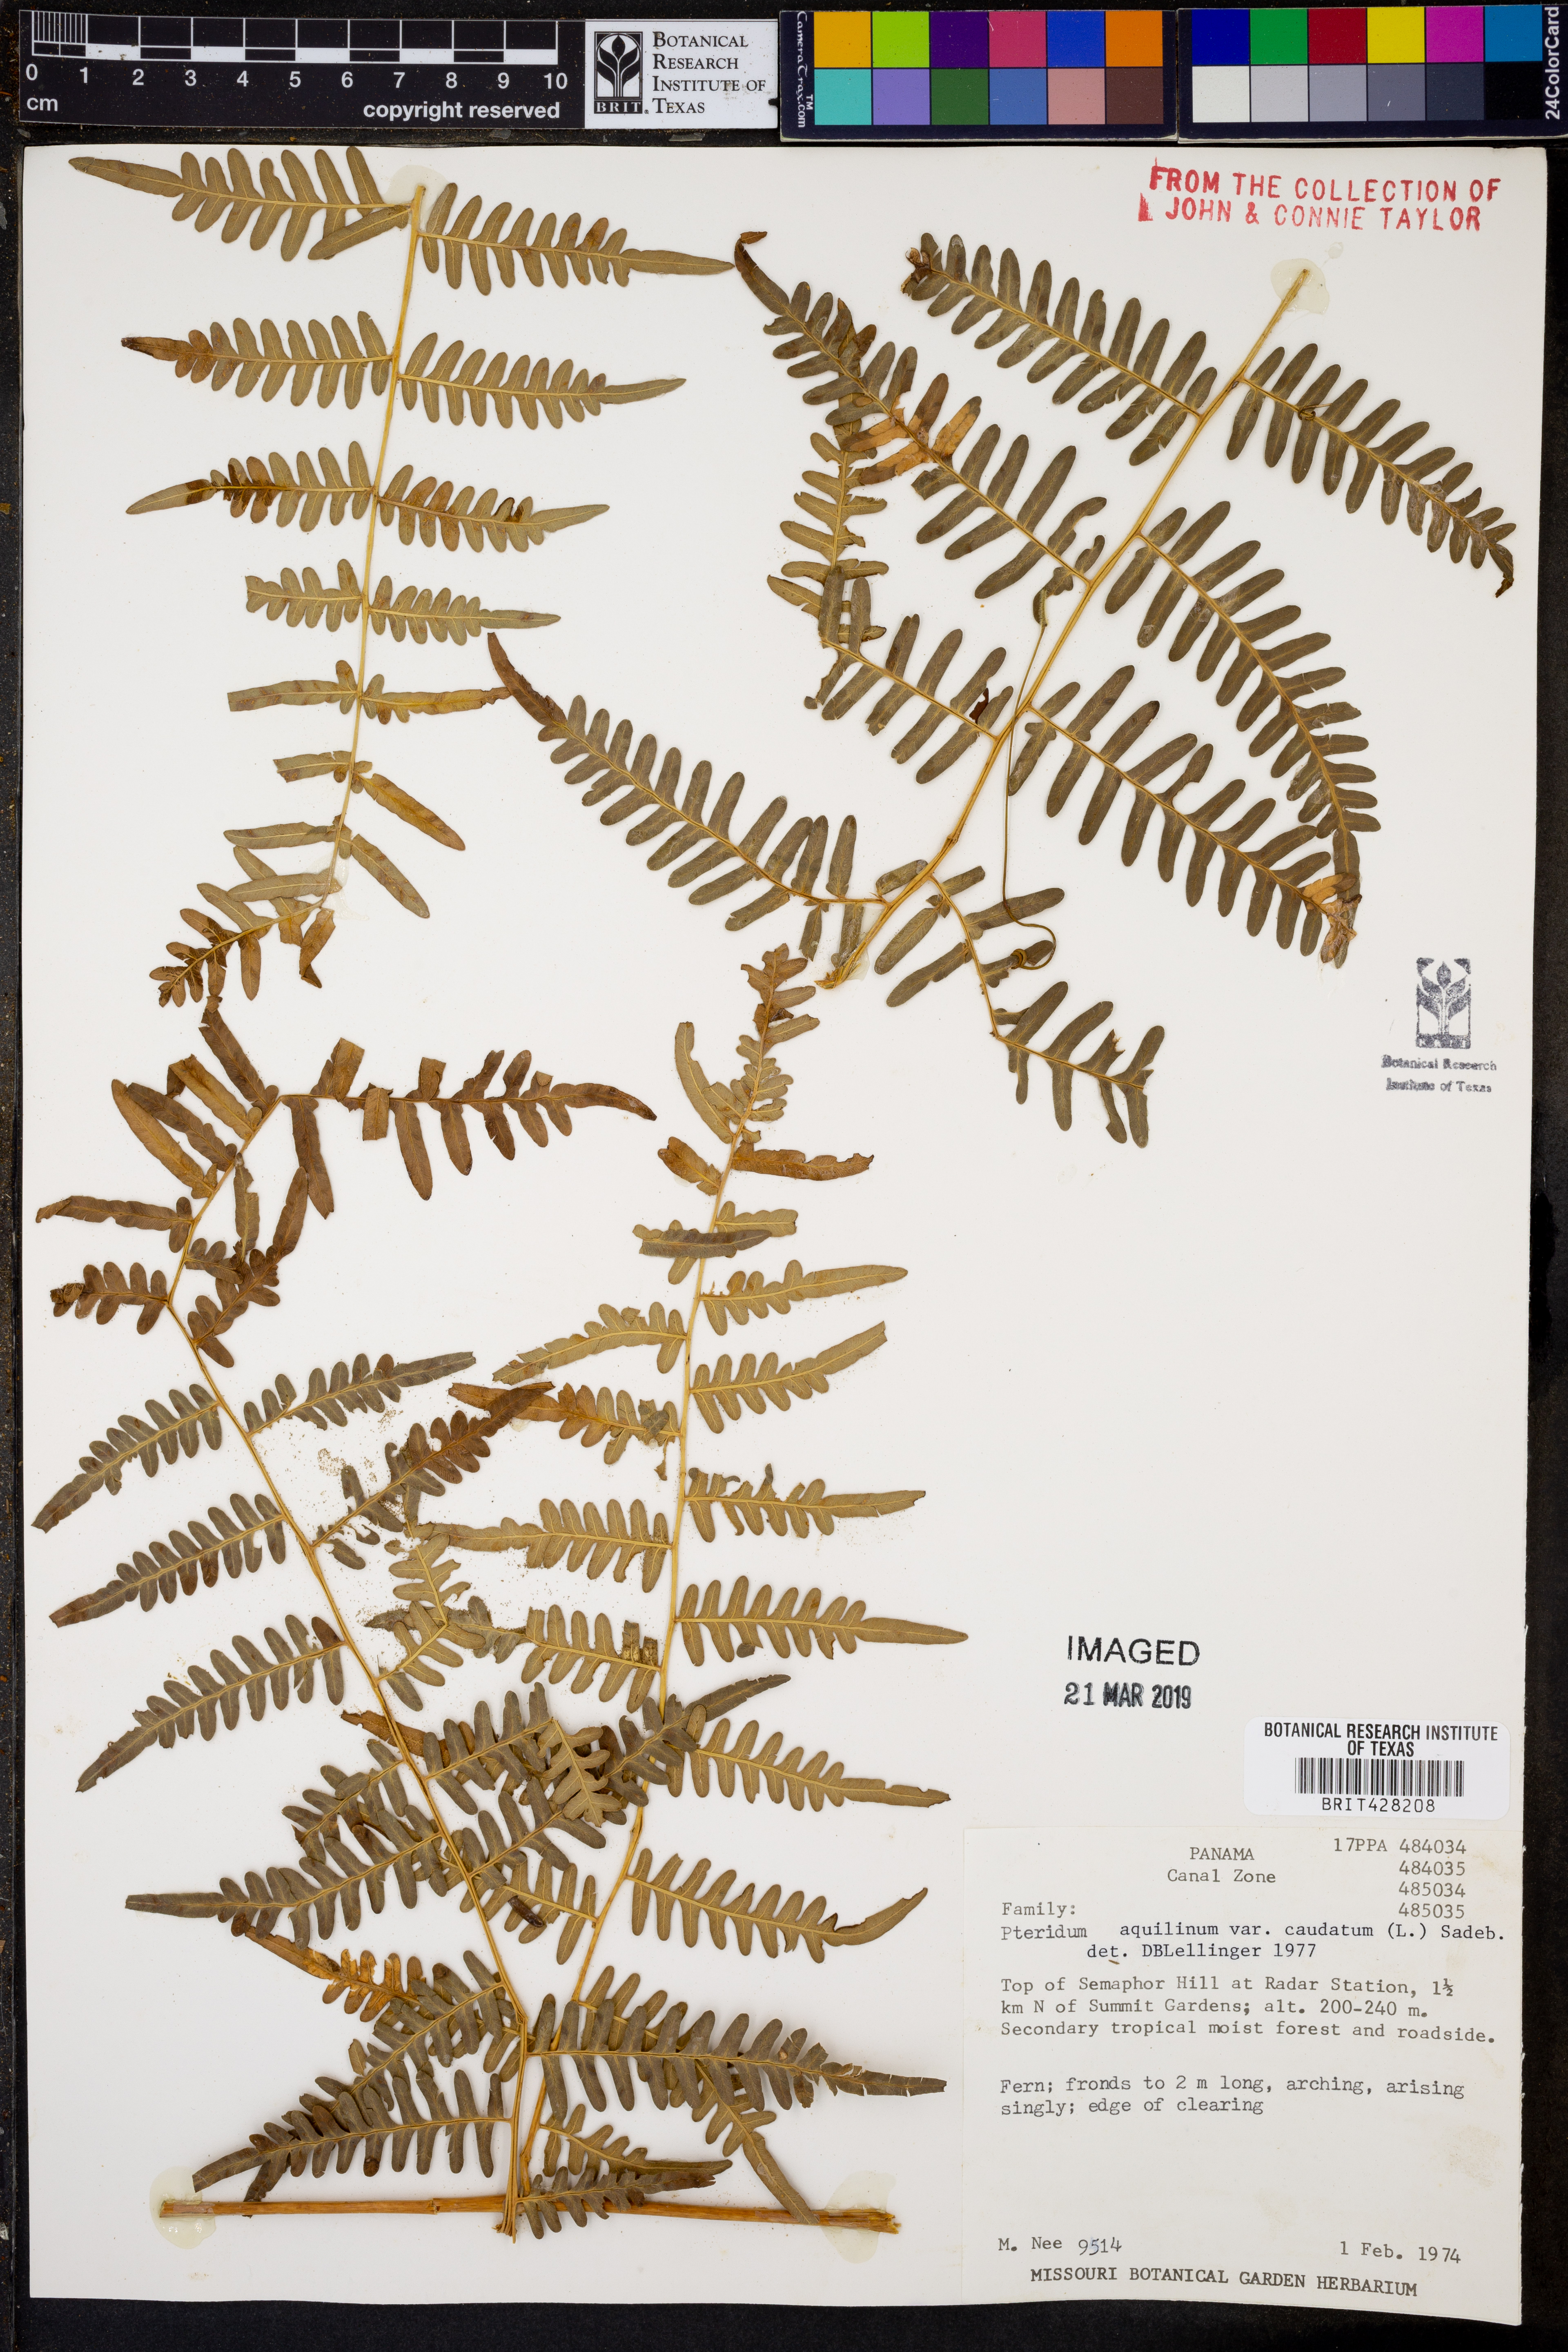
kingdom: Plantae
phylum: Tracheophyta
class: Polypodiopsida
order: Polypodiales
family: Dennstaedtiaceae
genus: Pteridium
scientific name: Pteridium caudatum
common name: Southern bracken fern
